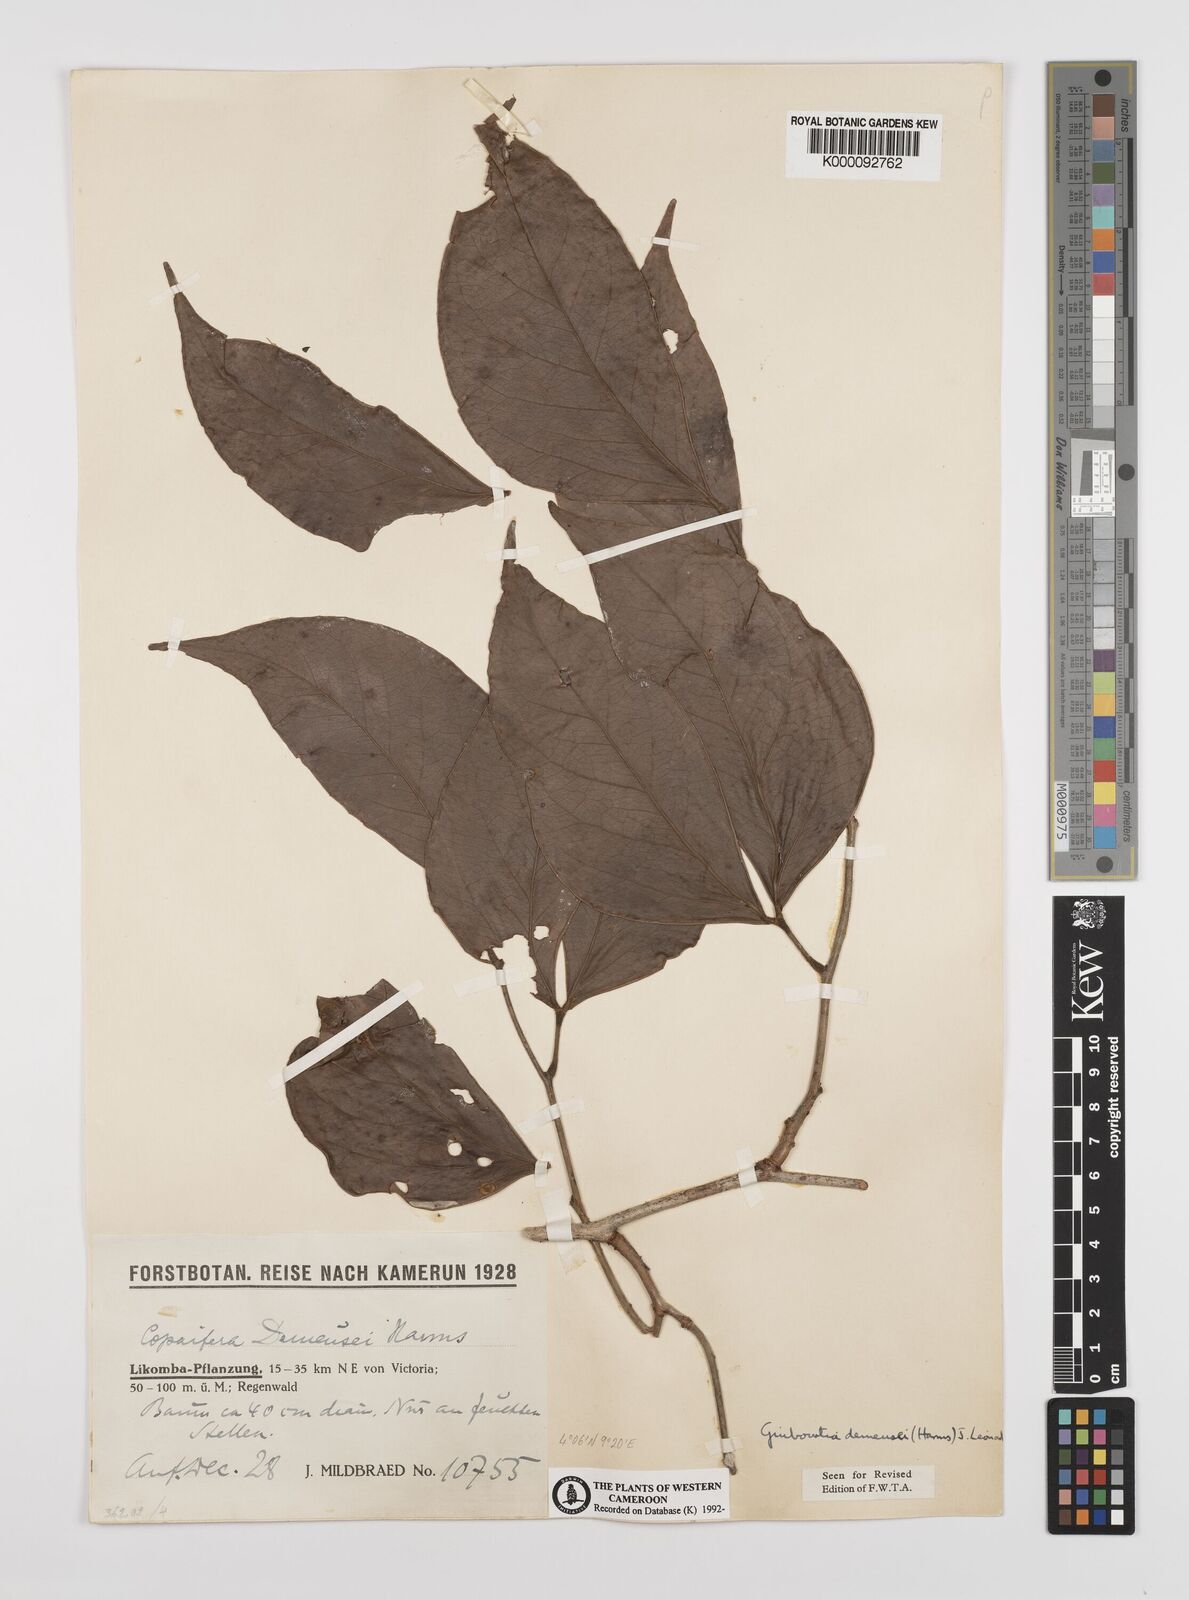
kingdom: Plantae
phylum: Tracheophyta
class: Magnoliopsida
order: Fabales
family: Fabaceae
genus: Guibourtia
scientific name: Guibourtia
